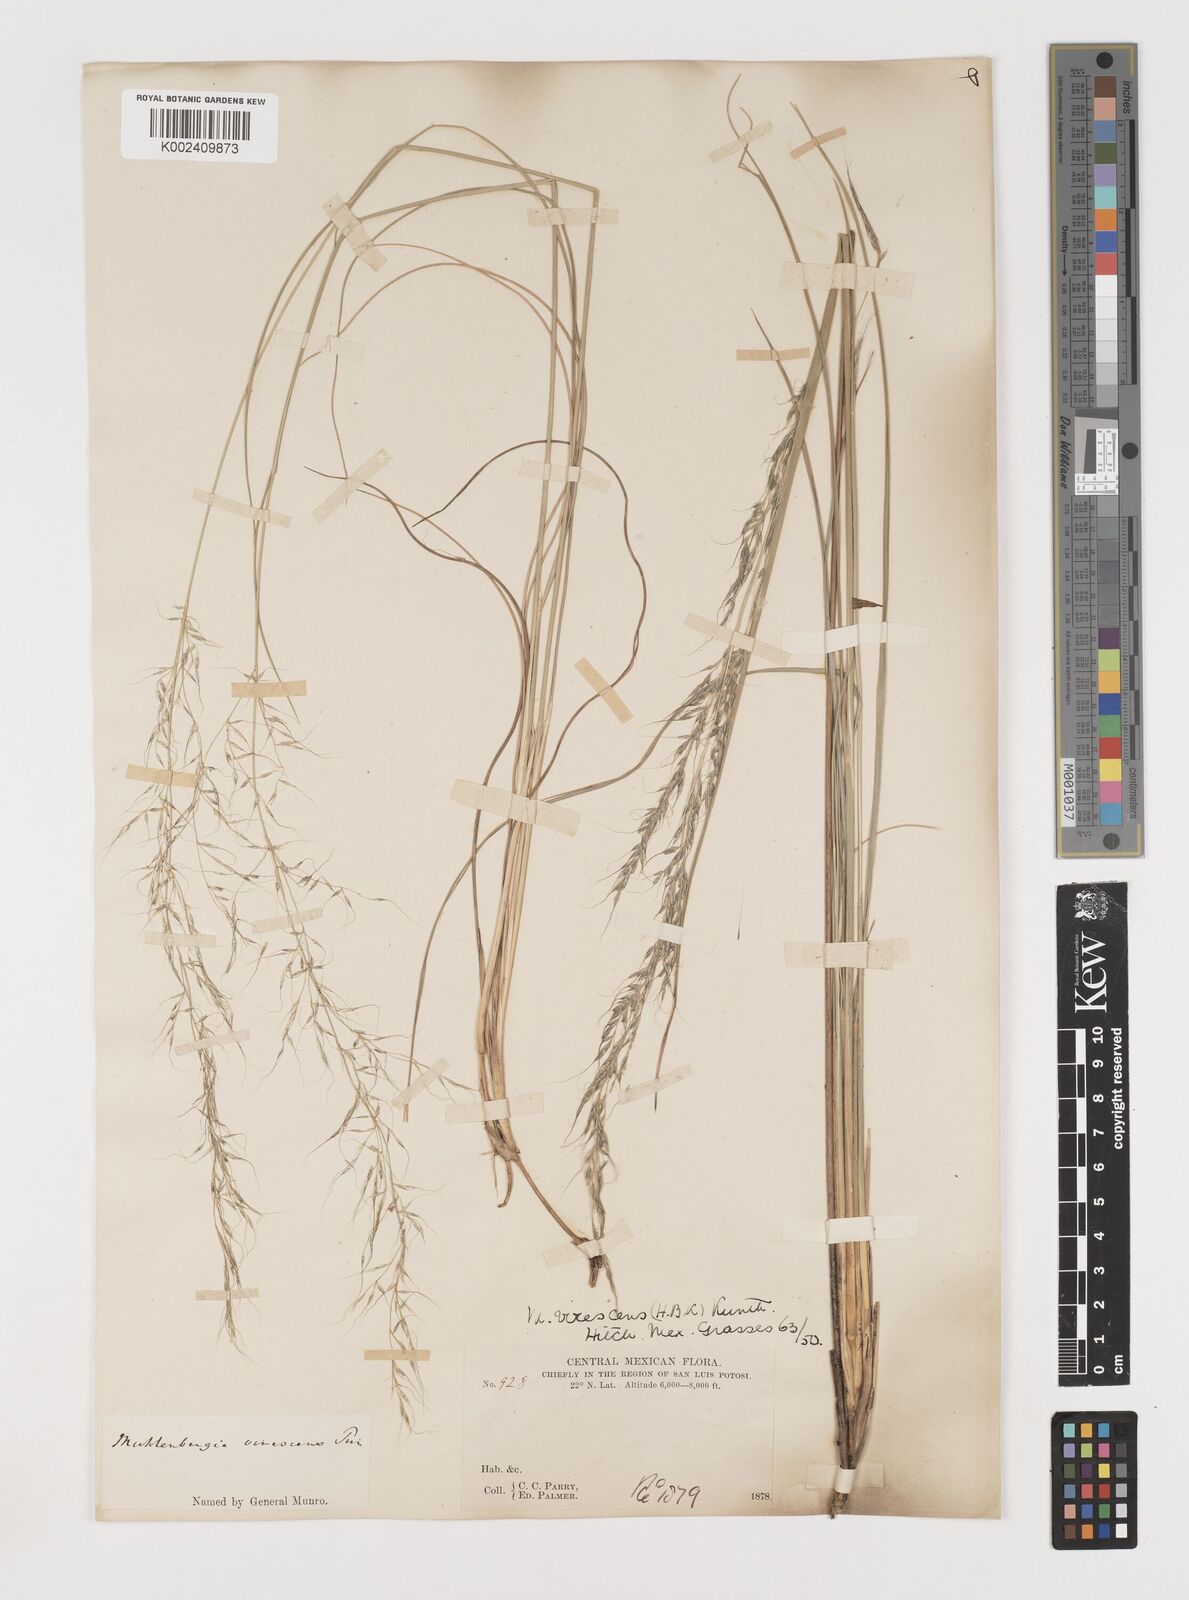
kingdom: Plantae
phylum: Tracheophyta
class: Liliopsida
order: Poales
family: Poaceae
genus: Muhlenbergia
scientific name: Muhlenbergia virescens
